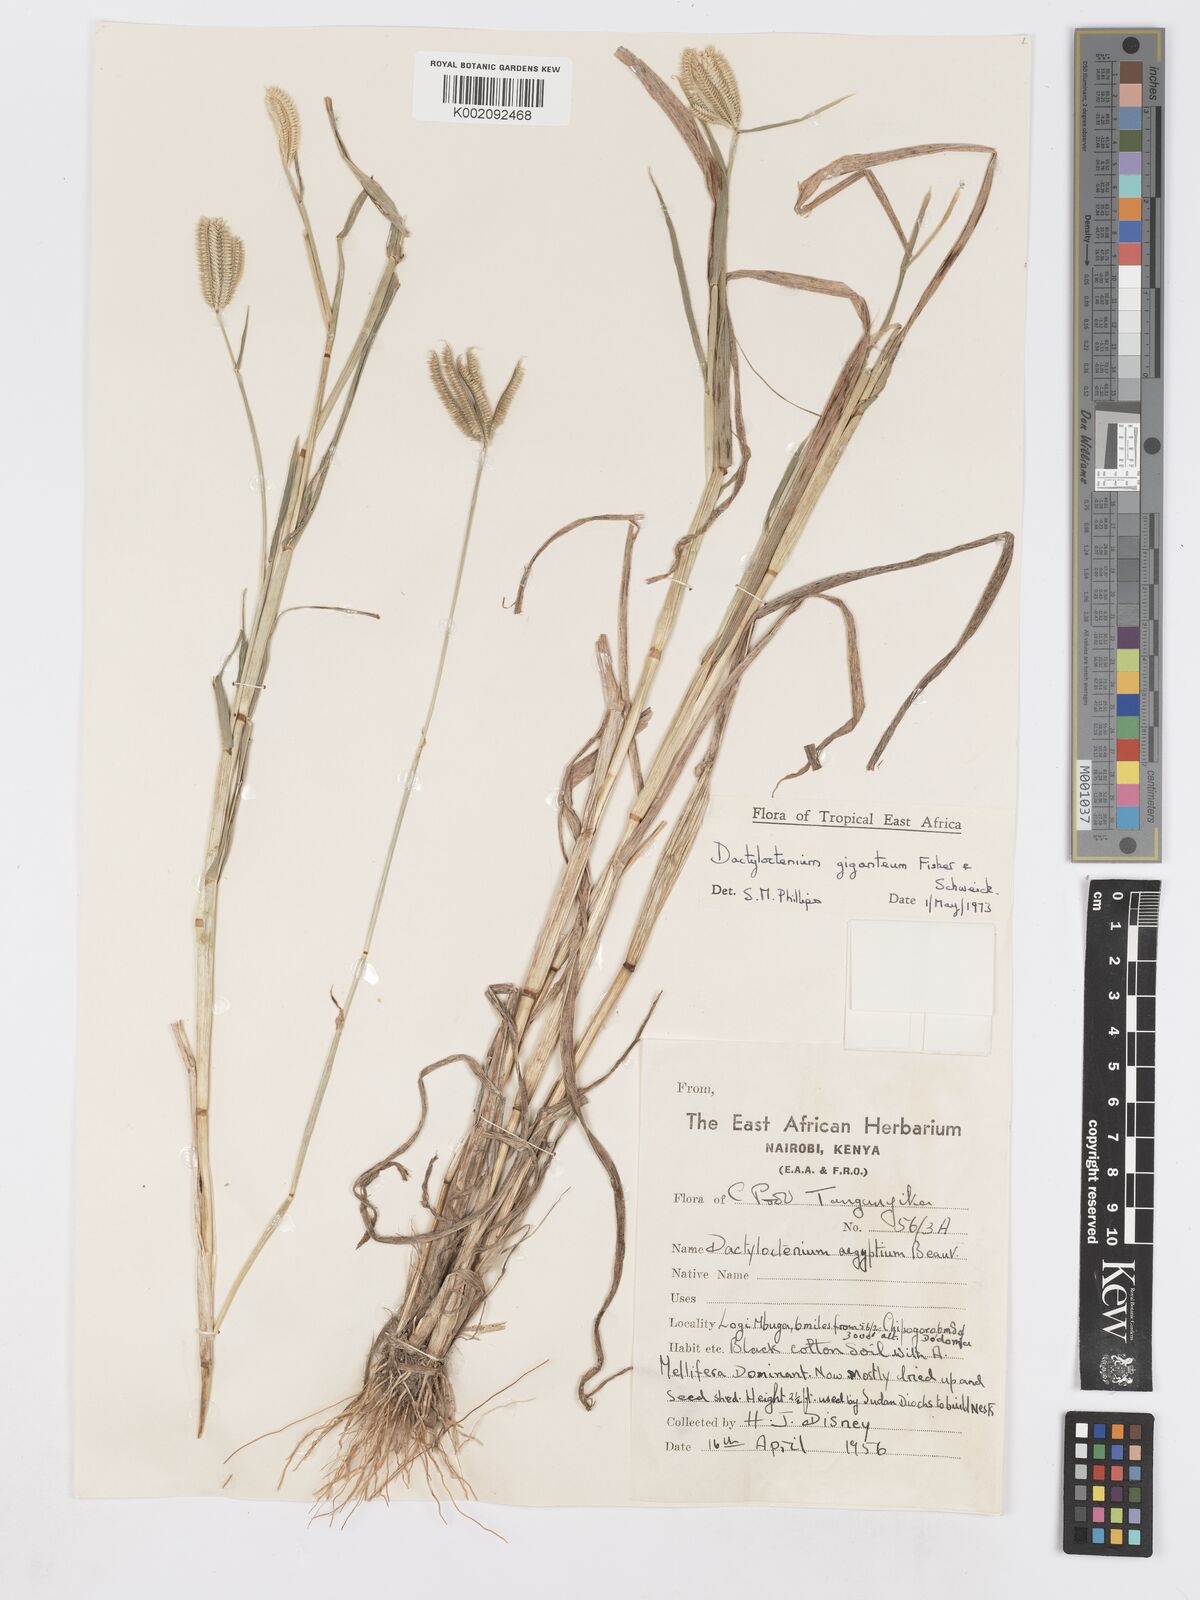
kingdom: Plantae
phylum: Tracheophyta
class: Liliopsida
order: Poales
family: Poaceae
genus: Dactyloctenium
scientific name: Dactyloctenium giganteum
